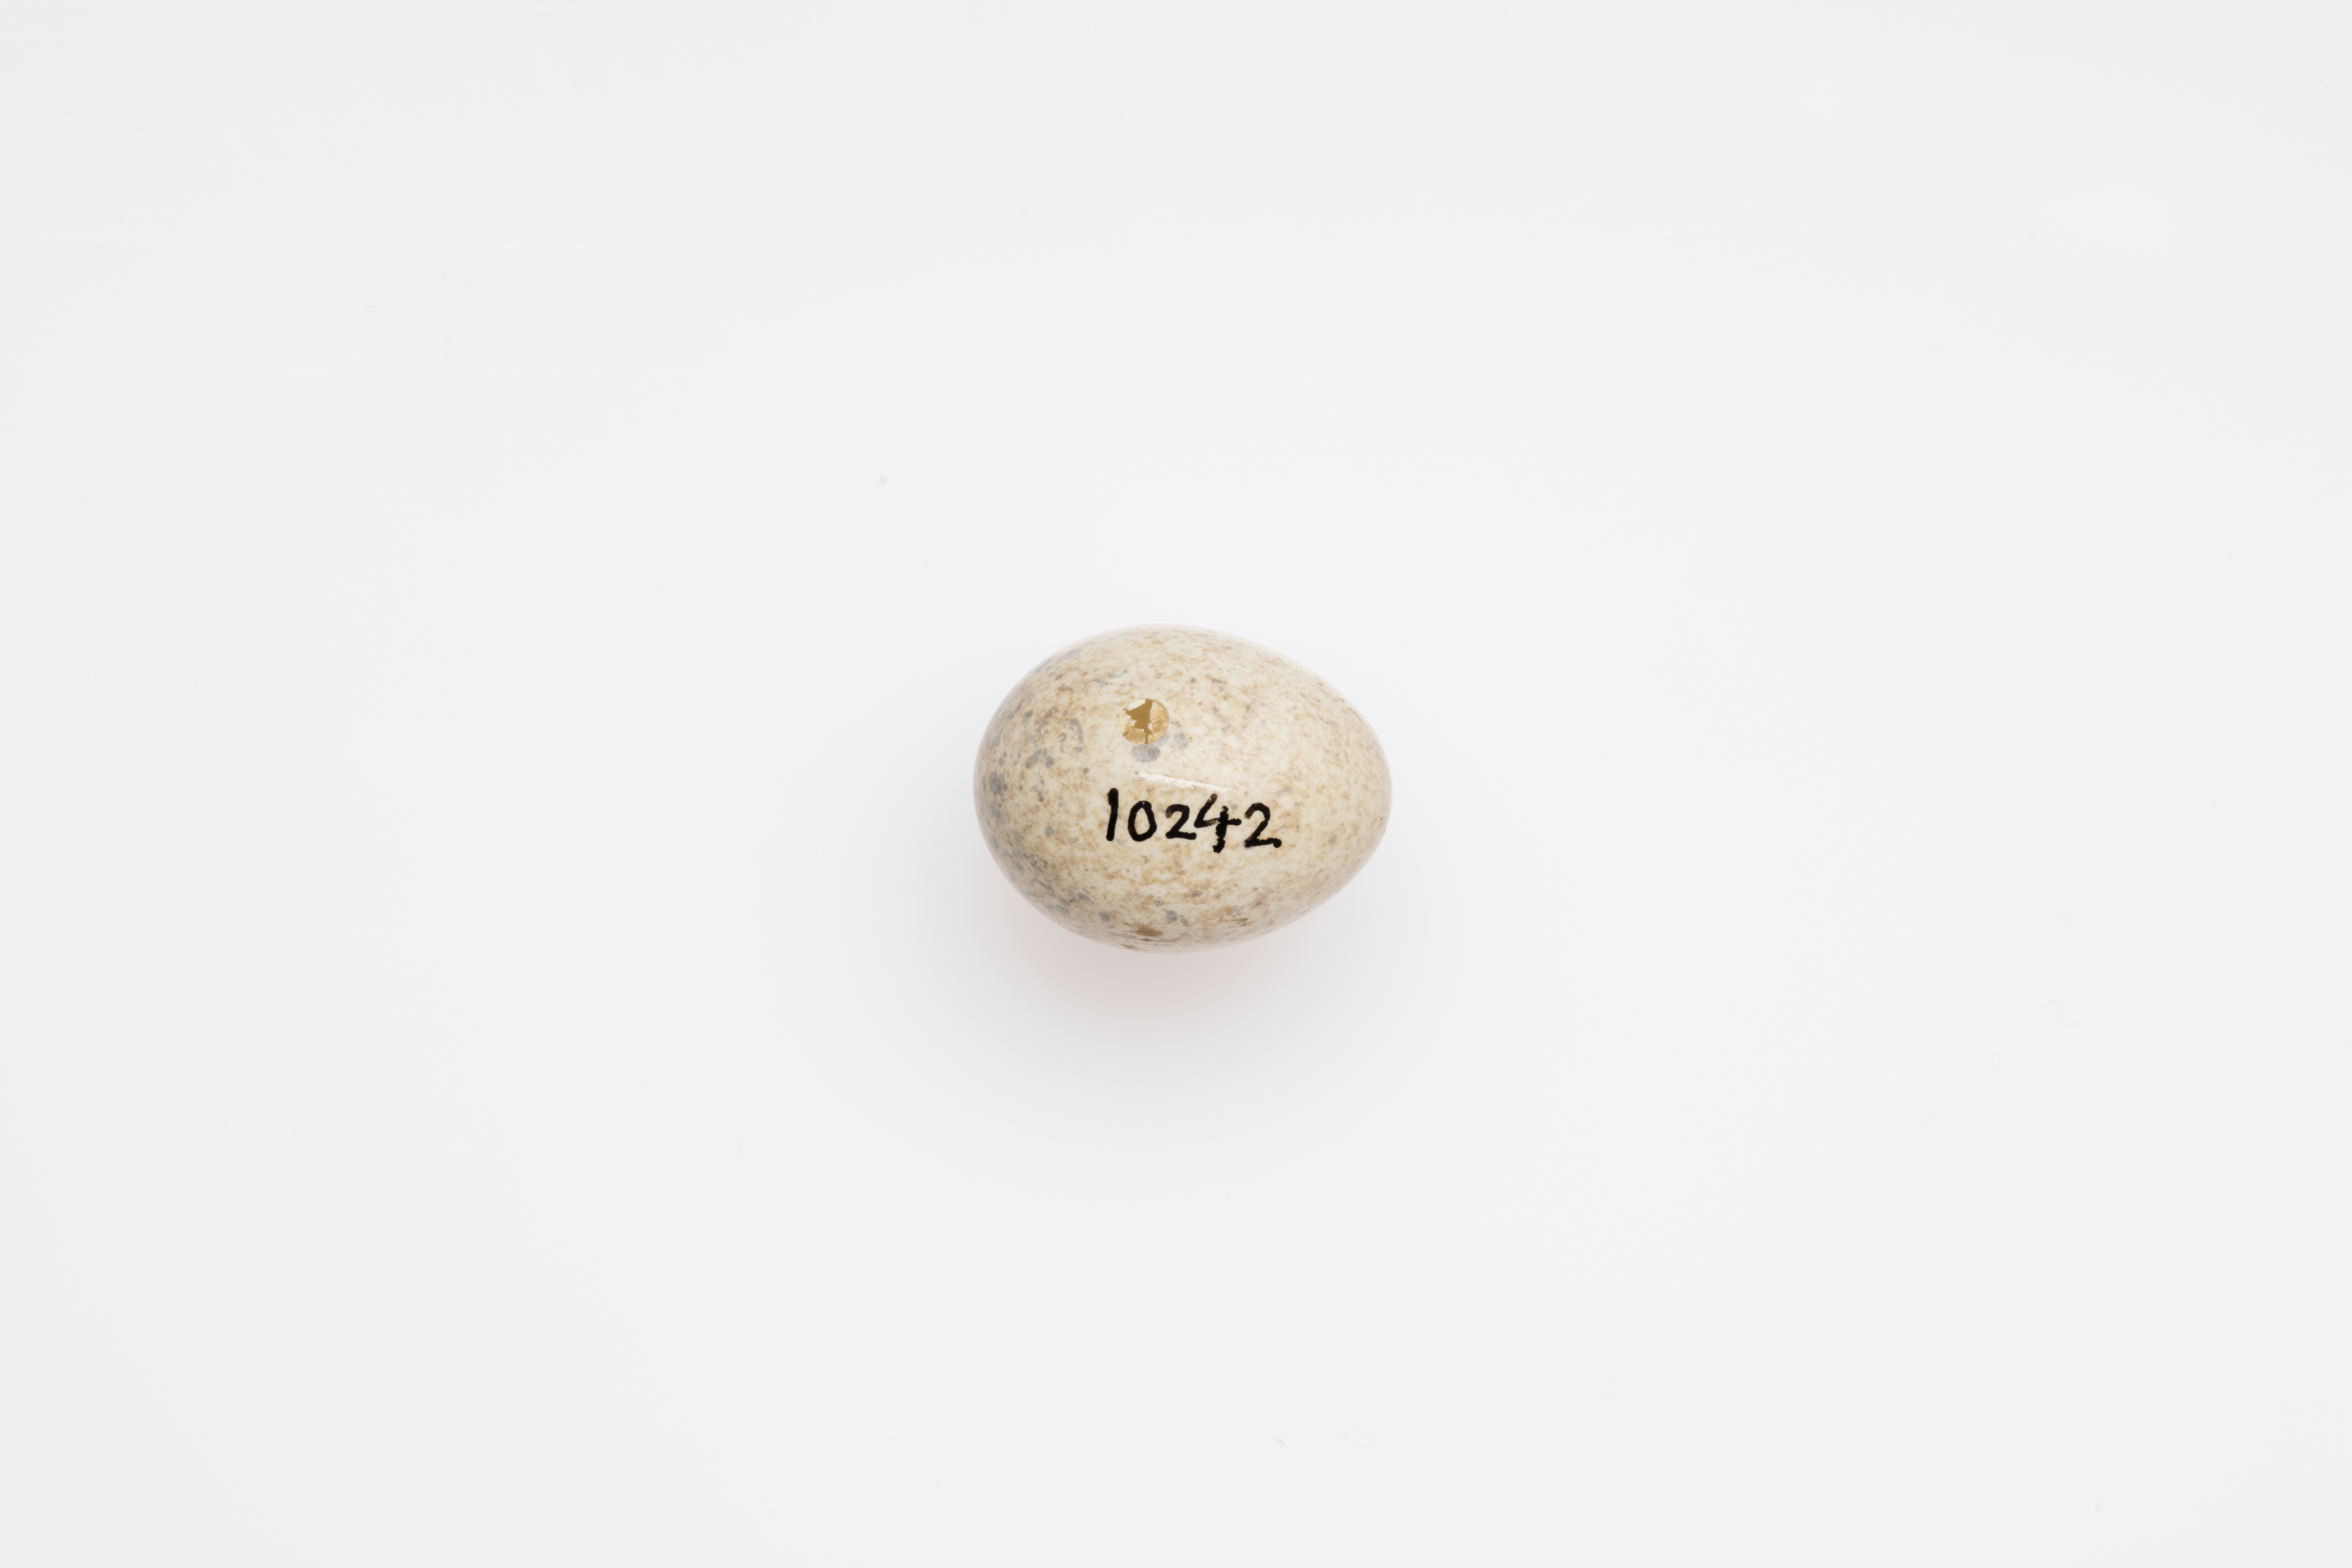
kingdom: Animalia
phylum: Chordata
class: Aves
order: Passeriformes
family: Sylviidae
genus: Sylvia
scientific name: Sylvia borin
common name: Garden warbler
